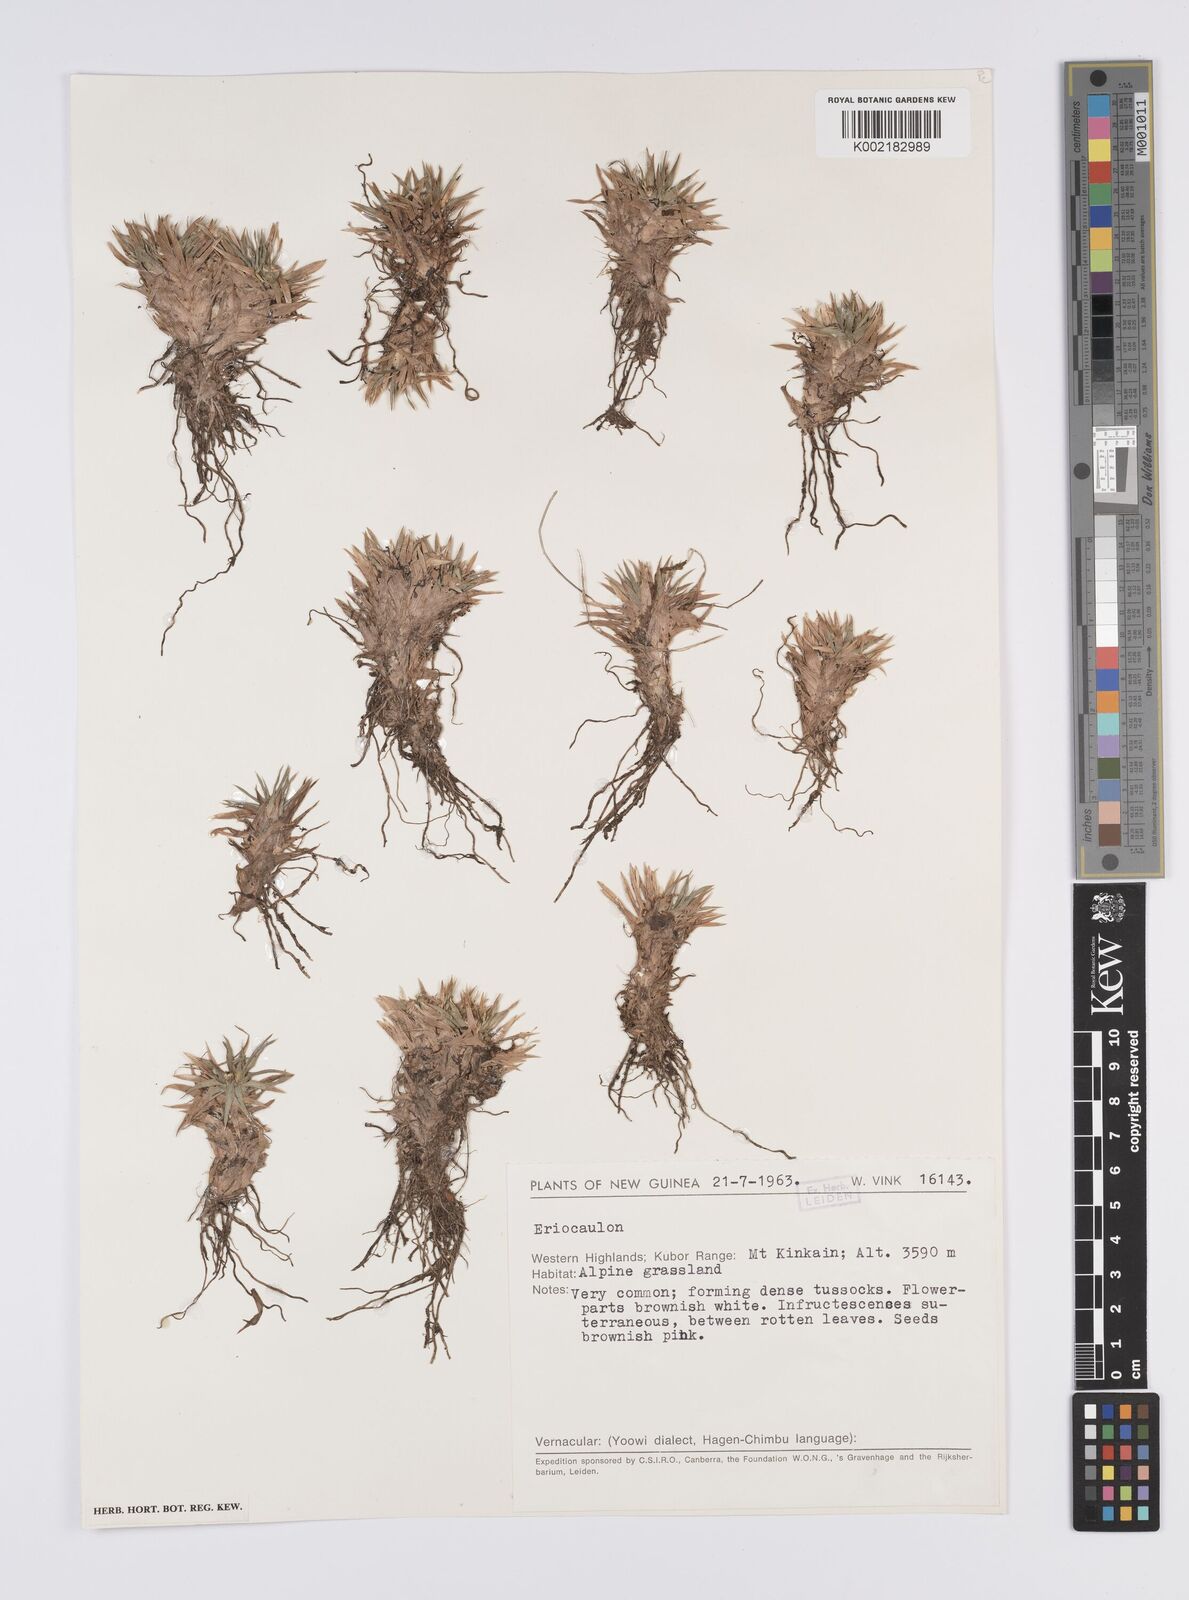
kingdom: Plantae
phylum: Tracheophyta
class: Liliopsida
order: Poales
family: Eriocaulaceae
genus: Eriocaulon
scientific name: Eriocaulon montanum
